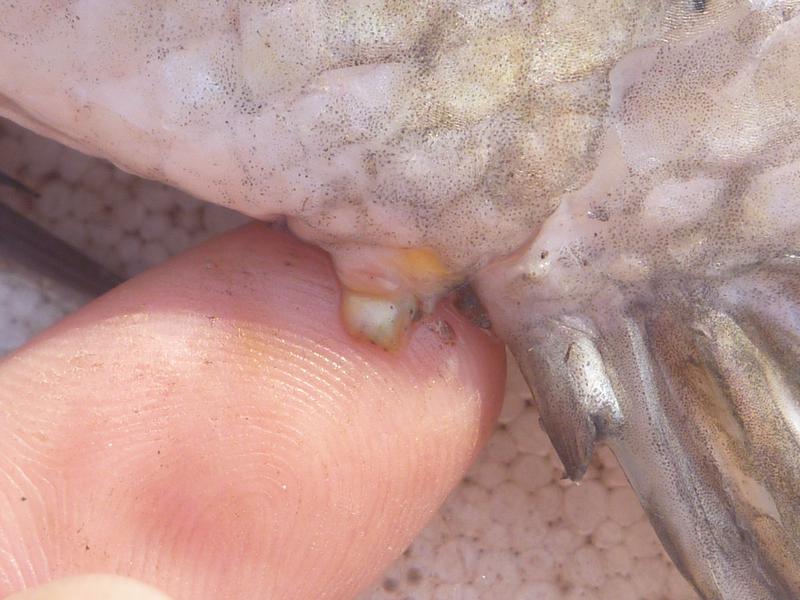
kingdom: Animalia
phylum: Chordata
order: Perciformes
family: Cichlidae
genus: Oreochromis
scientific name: Oreochromis karomo
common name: Karomo
